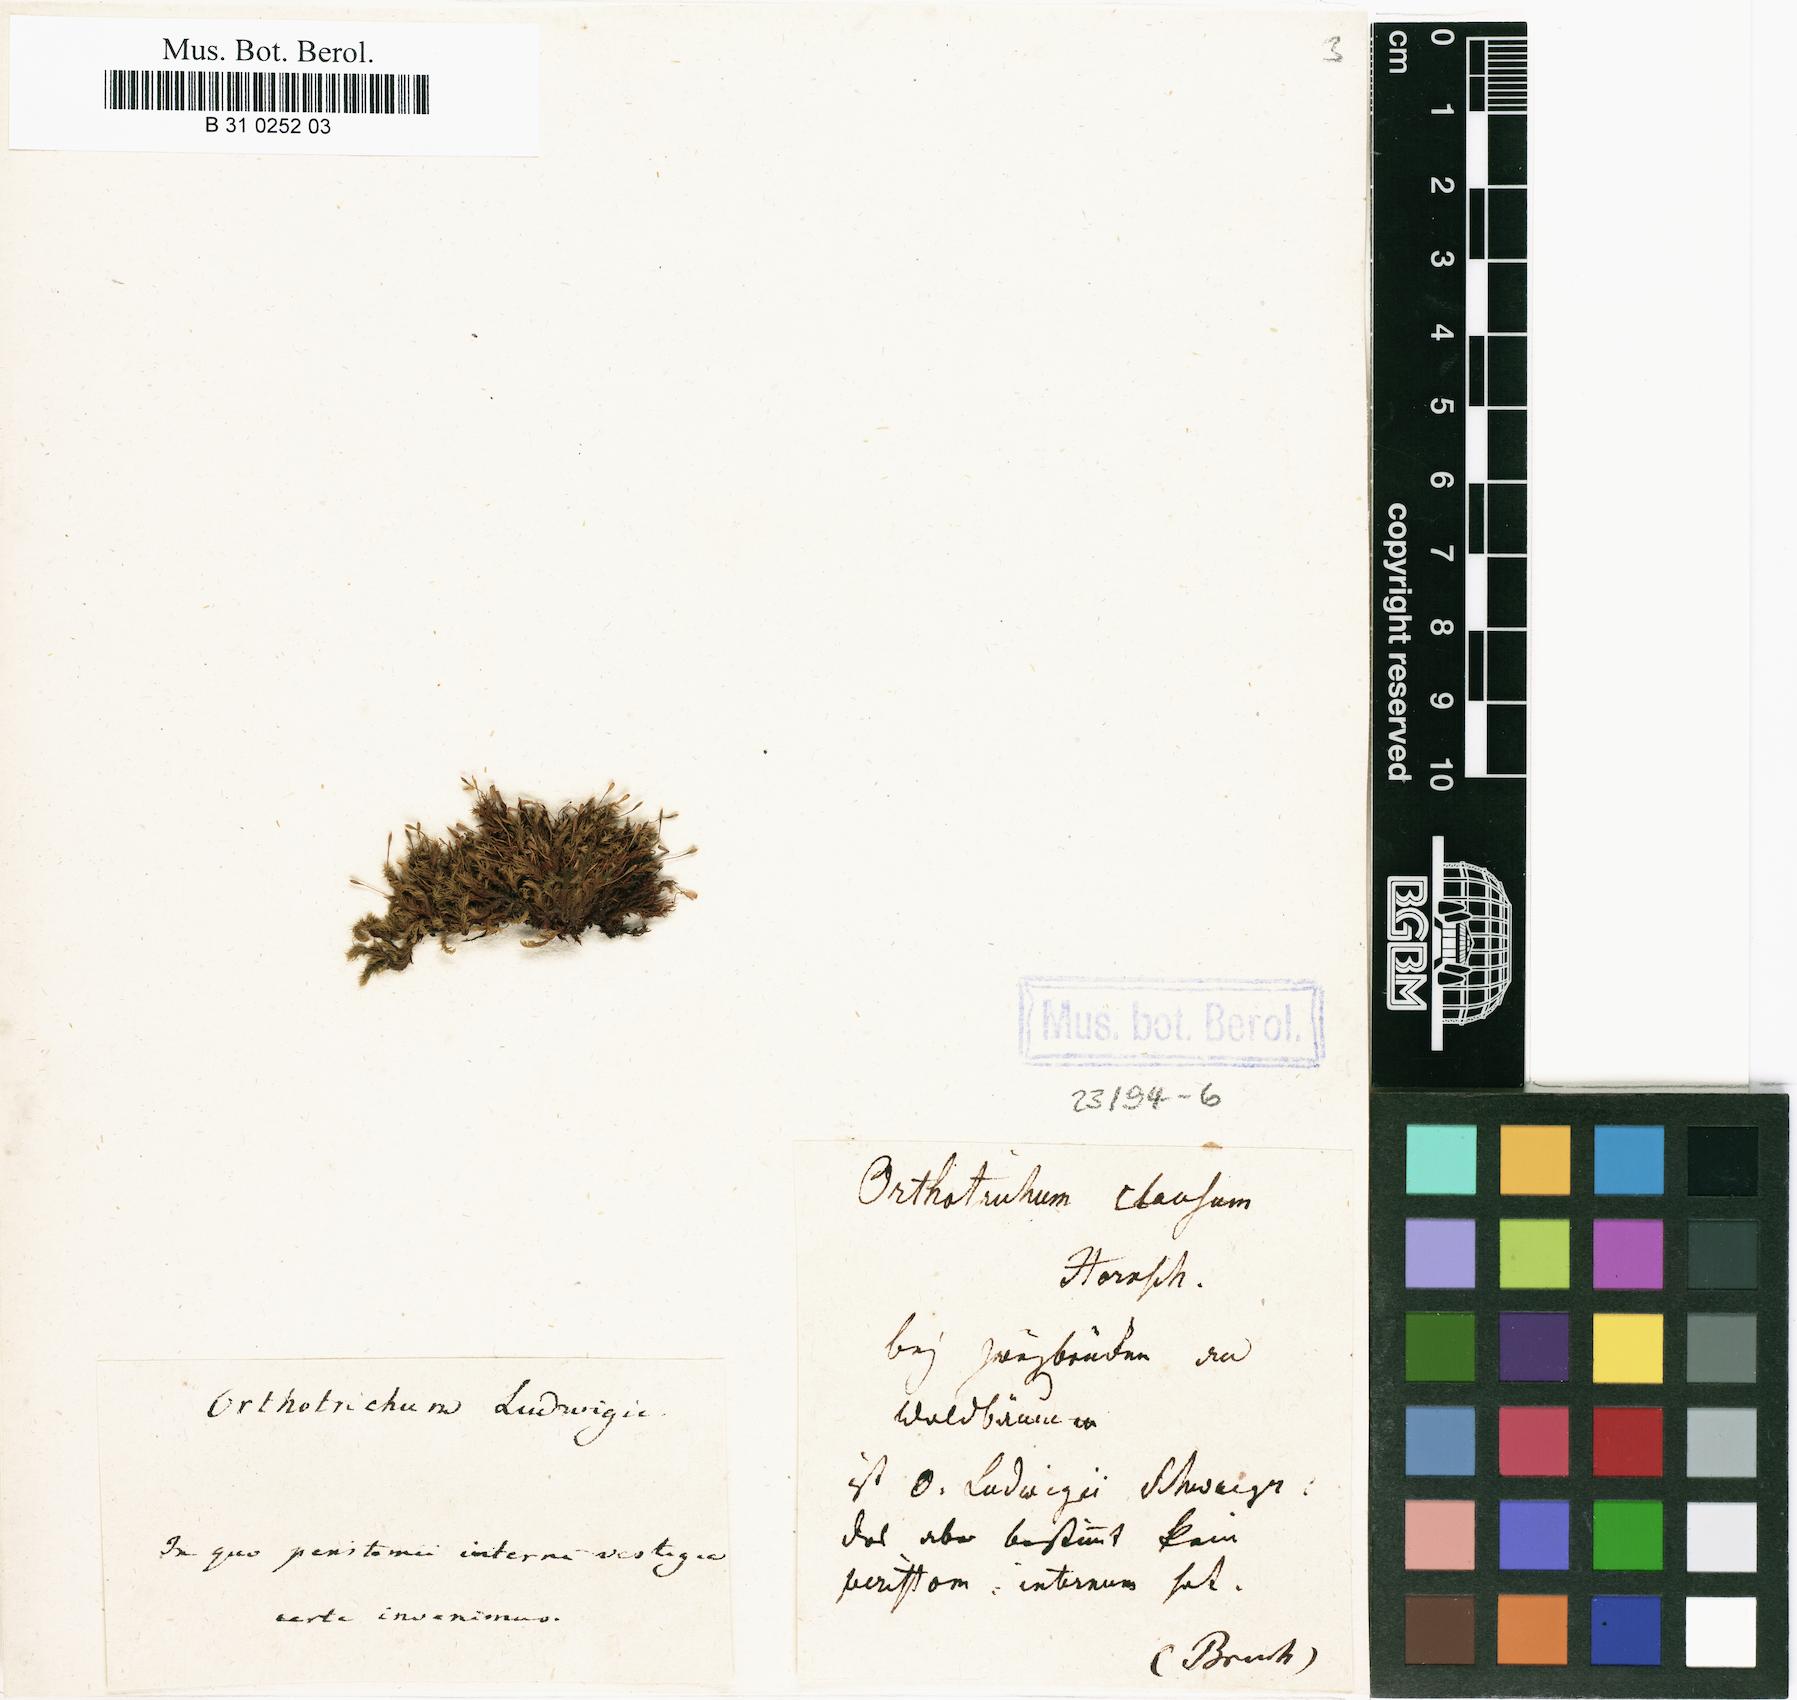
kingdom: Plantae
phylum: Bryophyta
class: Bryopsida
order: Orthotrichales
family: Orthotrichaceae
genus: Ulota
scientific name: Ulota coarctata
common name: Club pincushion moss
